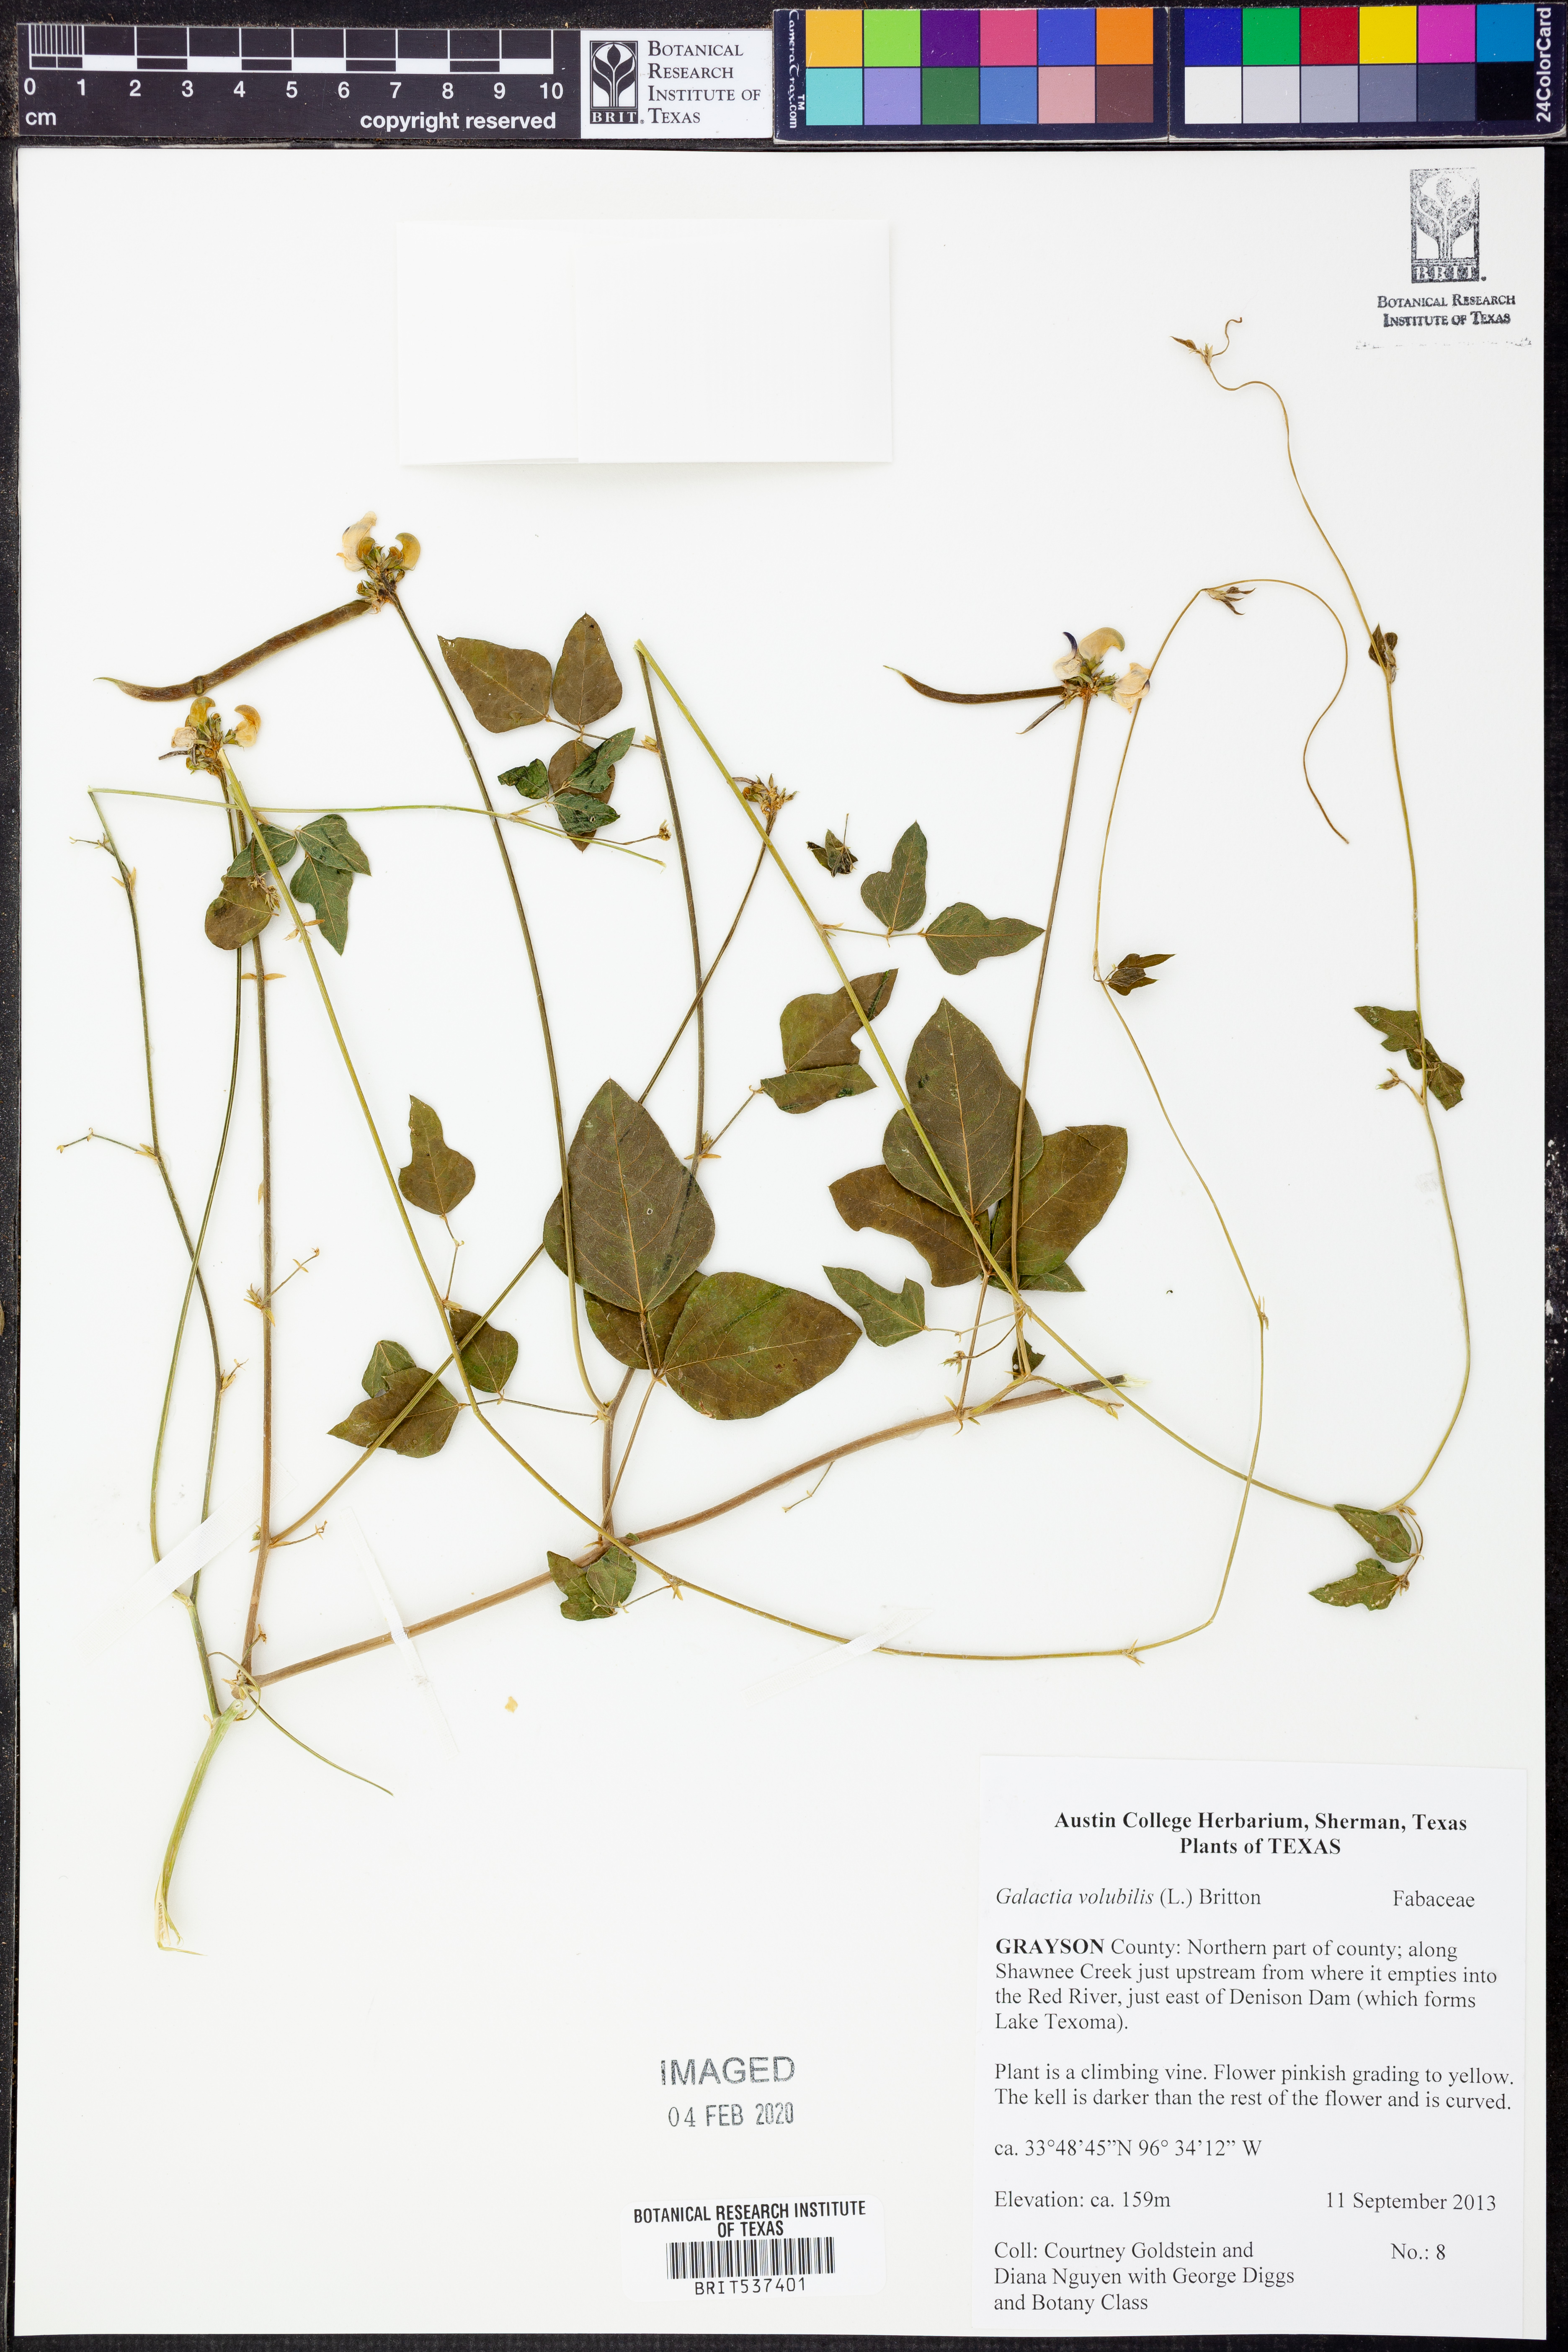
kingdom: Plantae
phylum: Tracheophyta
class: Magnoliopsida
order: Fabales
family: Fabaceae
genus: Galactia
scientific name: Galactia volubilis
